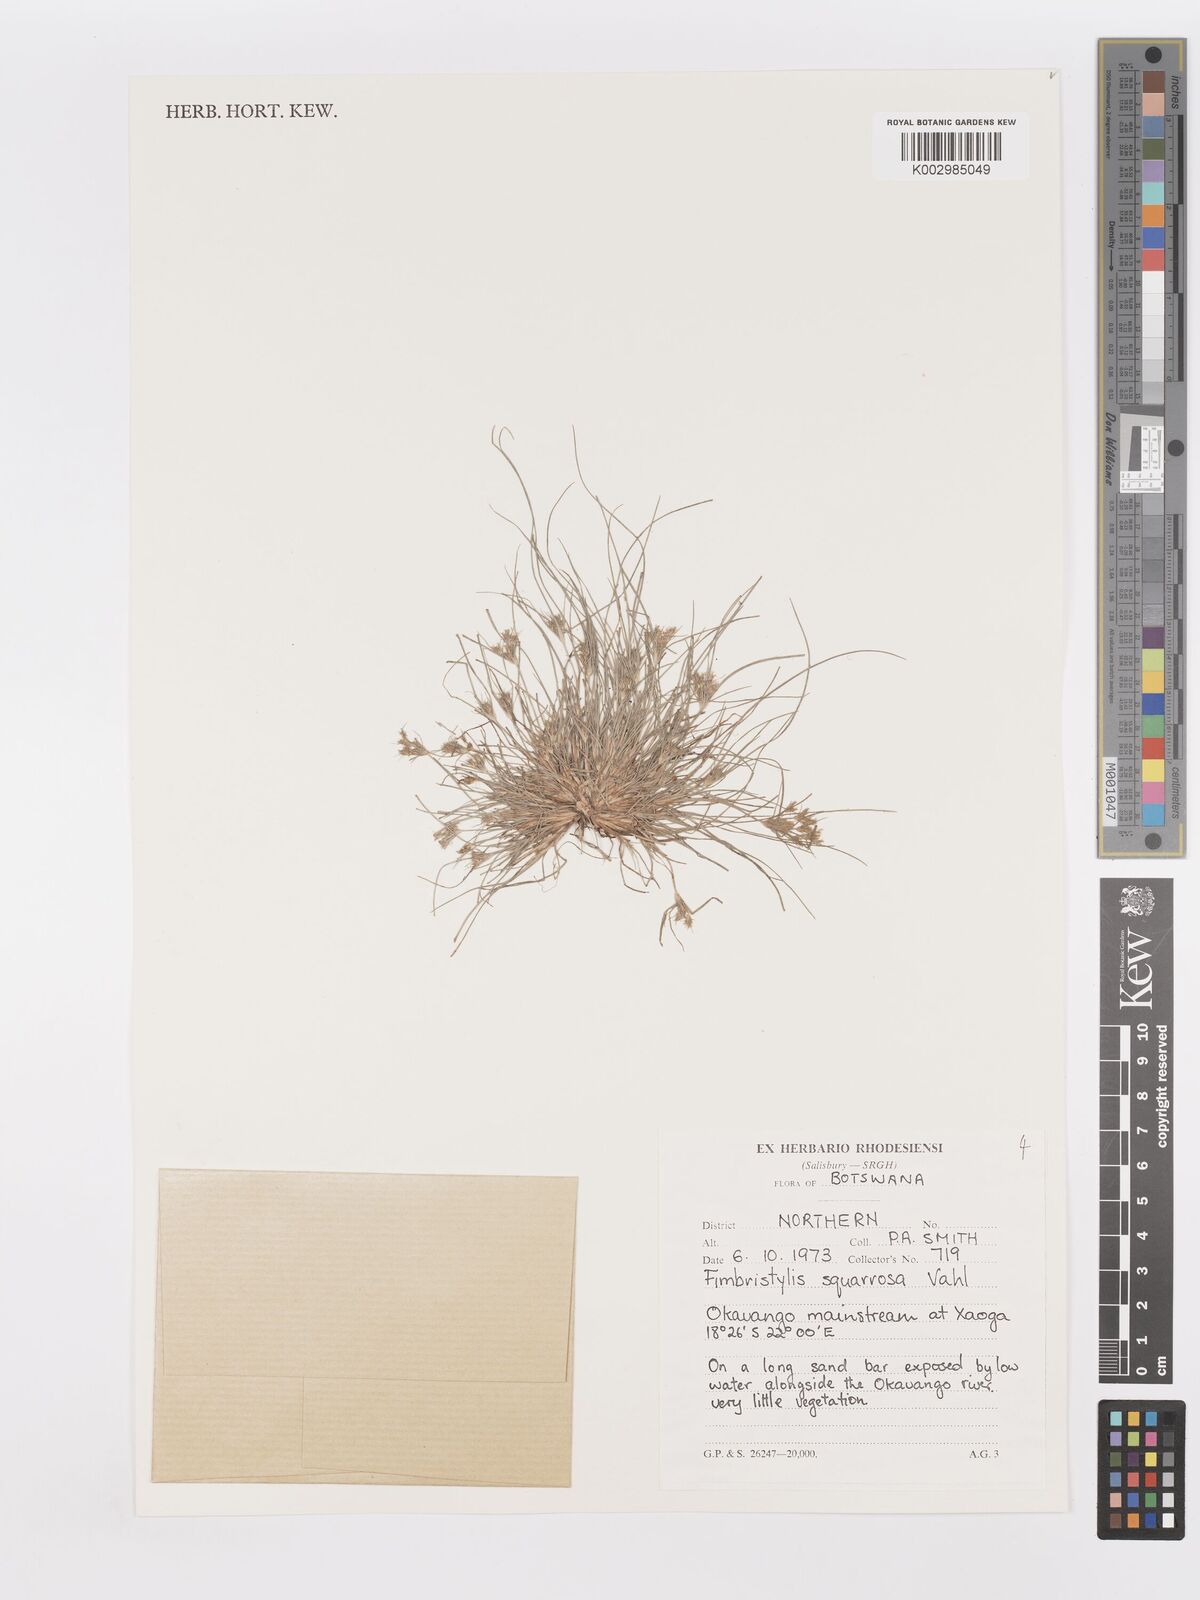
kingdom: Plantae
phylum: Tracheophyta
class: Liliopsida
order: Poales
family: Cyperaceae
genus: Fimbristylis
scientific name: Fimbristylis squarrosa
